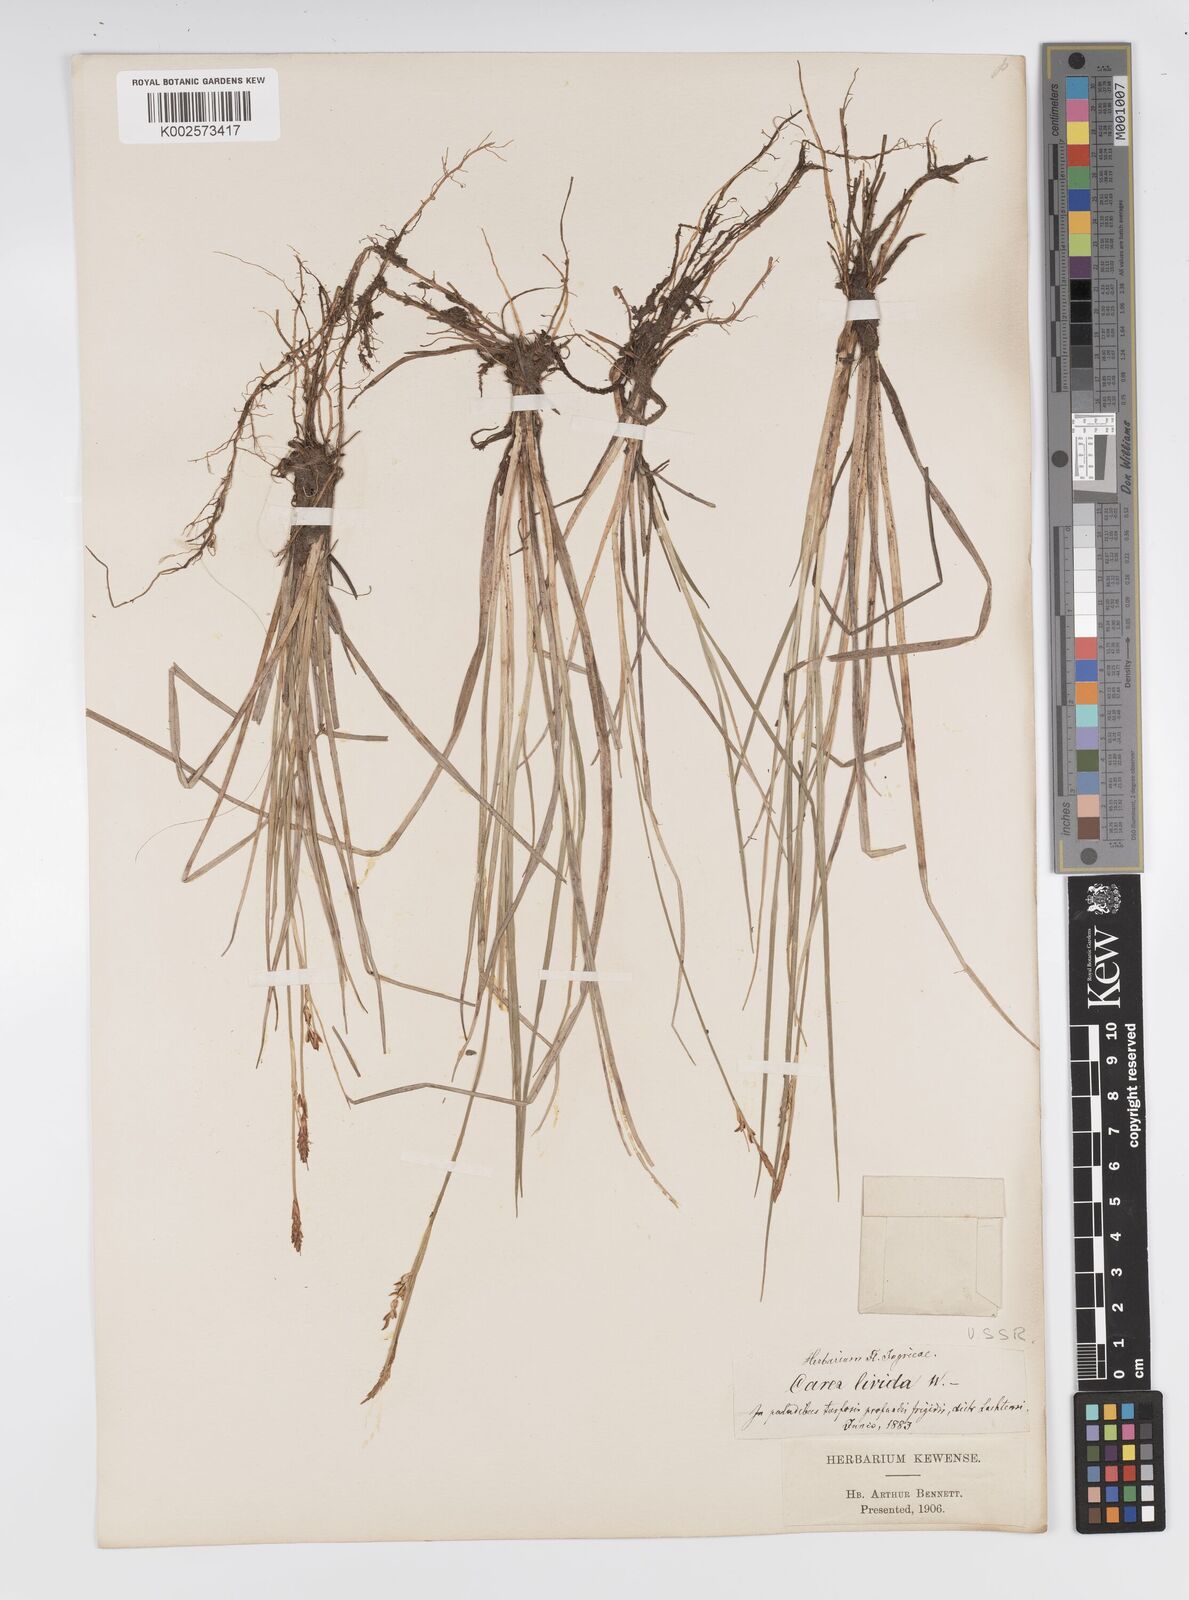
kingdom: Plantae
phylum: Tracheophyta
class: Liliopsida
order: Poales
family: Cyperaceae
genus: Carex
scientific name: Carex livida
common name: Livid sedge
